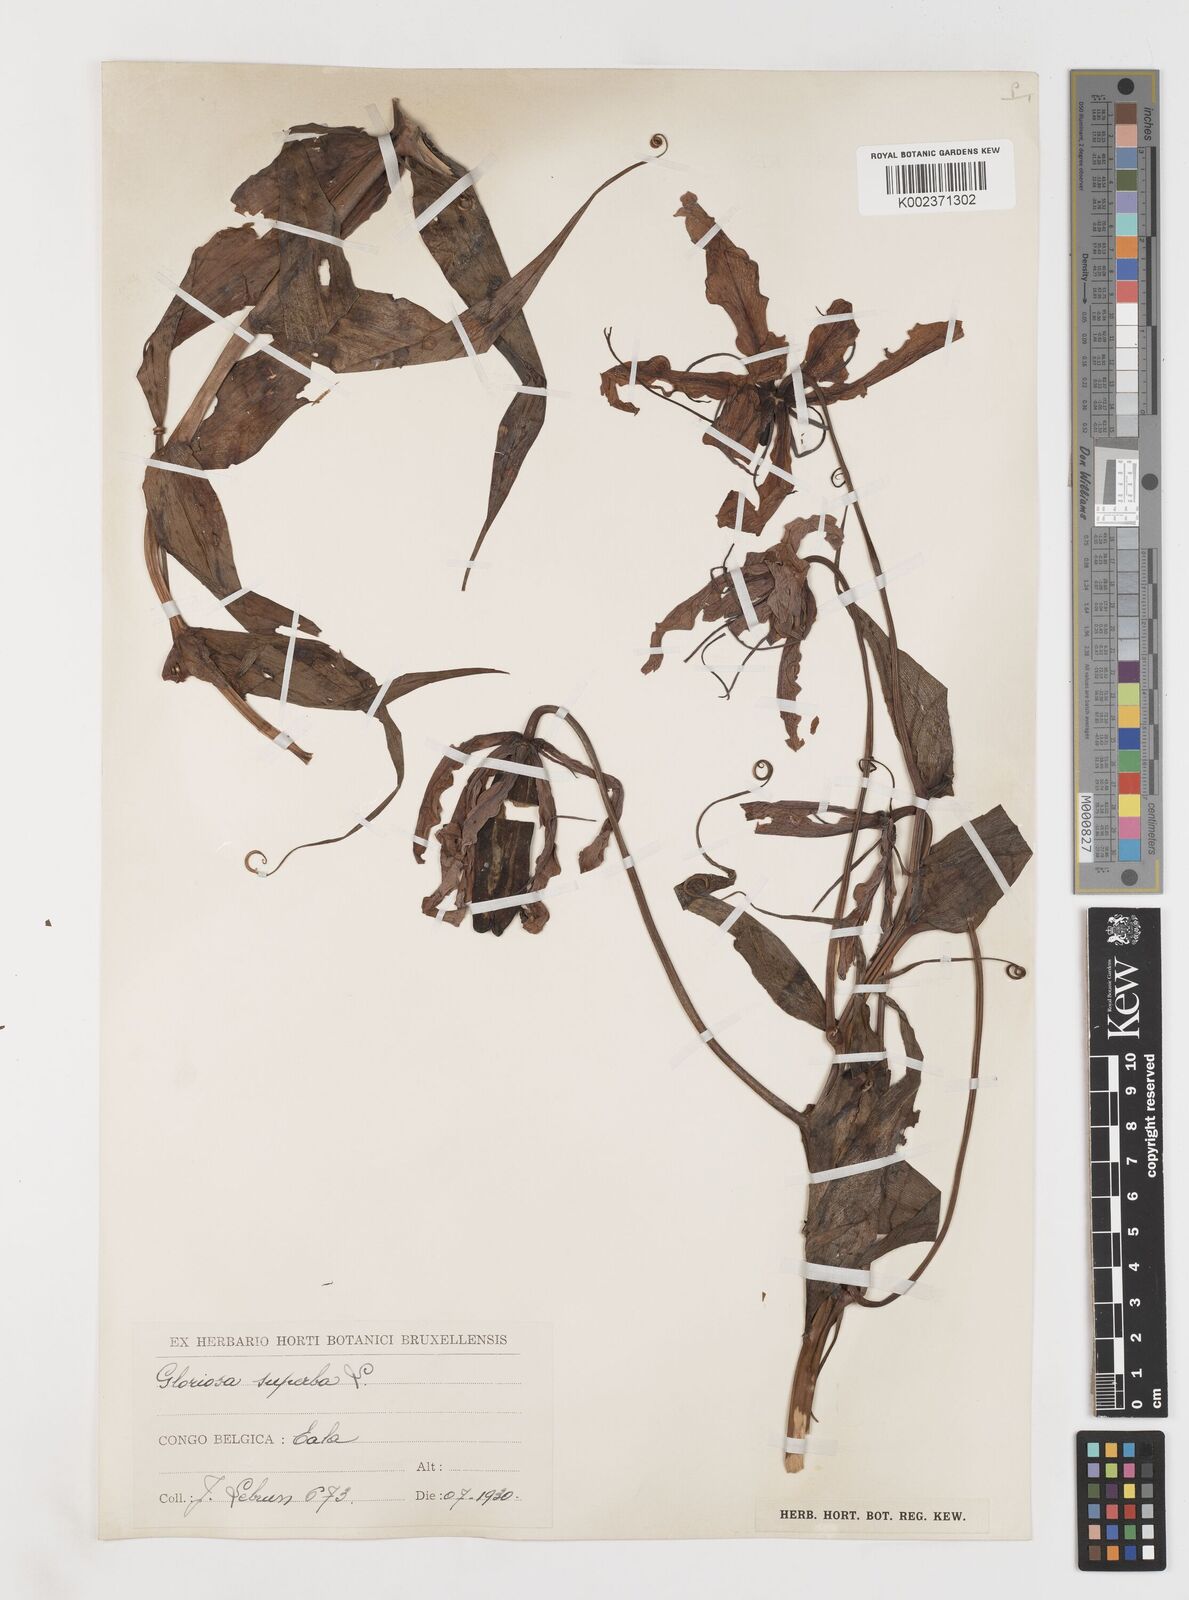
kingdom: Plantae
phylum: Tracheophyta
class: Liliopsida
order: Liliales
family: Colchicaceae
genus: Gloriosa
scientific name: Gloriosa simplex
